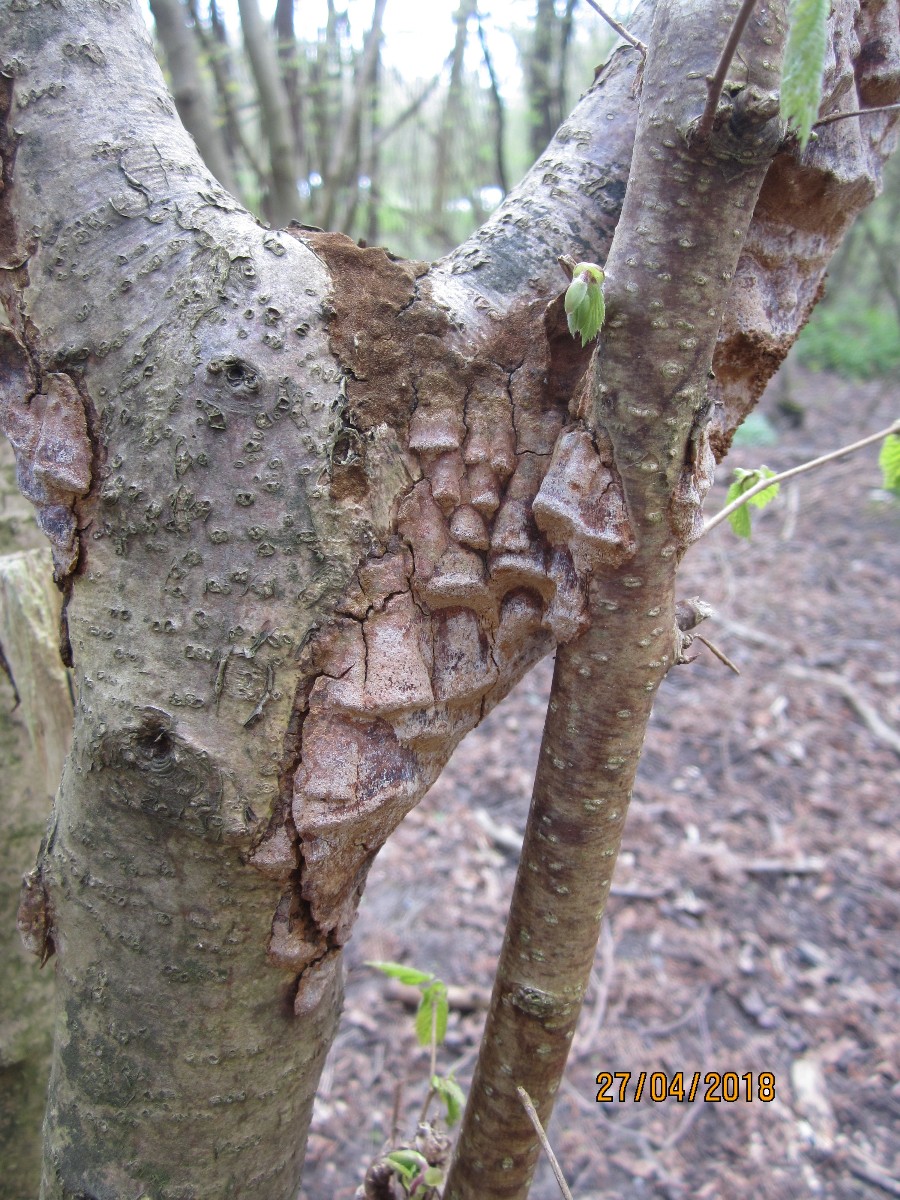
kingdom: Fungi
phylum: Basidiomycota
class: Agaricomycetes
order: Hymenochaetales
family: Hymenochaetaceae
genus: Fuscoporia
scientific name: Fuscoporia ferrea
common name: skorpe-ildporesvamp
